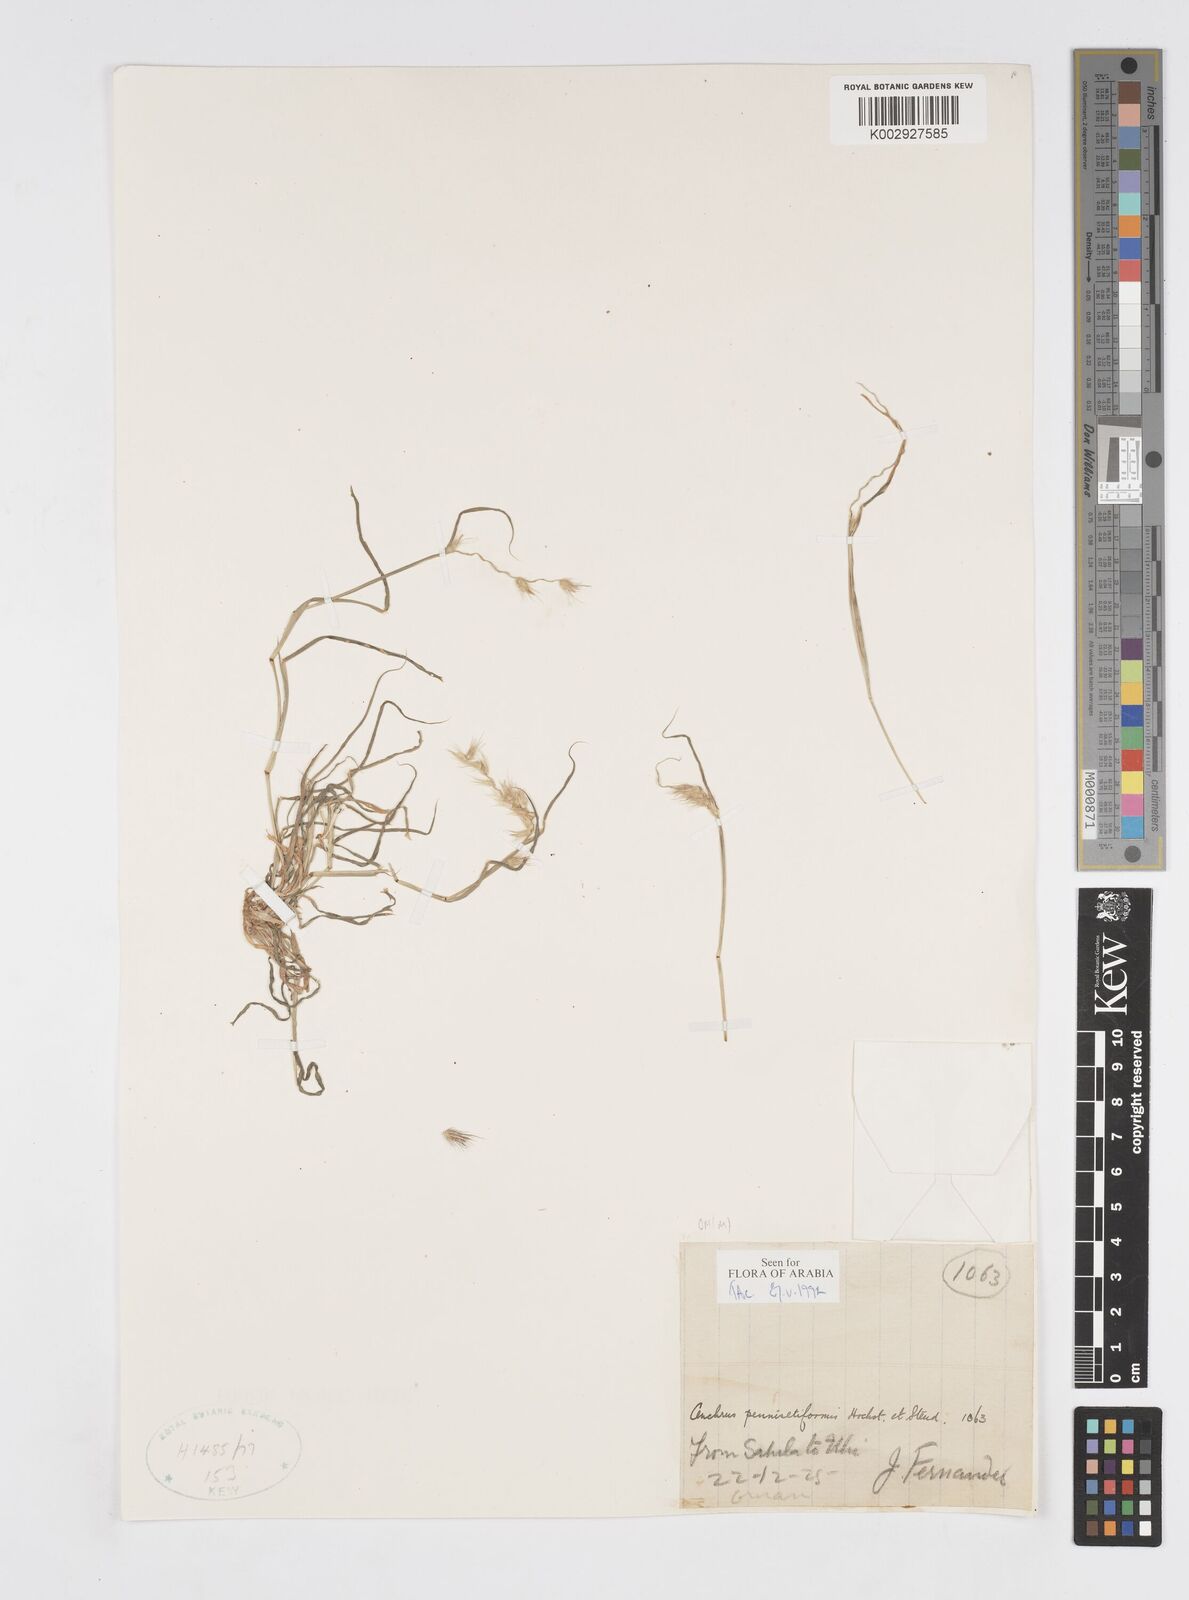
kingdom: Plantae
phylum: Tracheophyta
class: Liliopsida
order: Poales
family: Poaceae
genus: Cenchrus
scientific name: Cenchrus pennisetiformis
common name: Cloncurry
